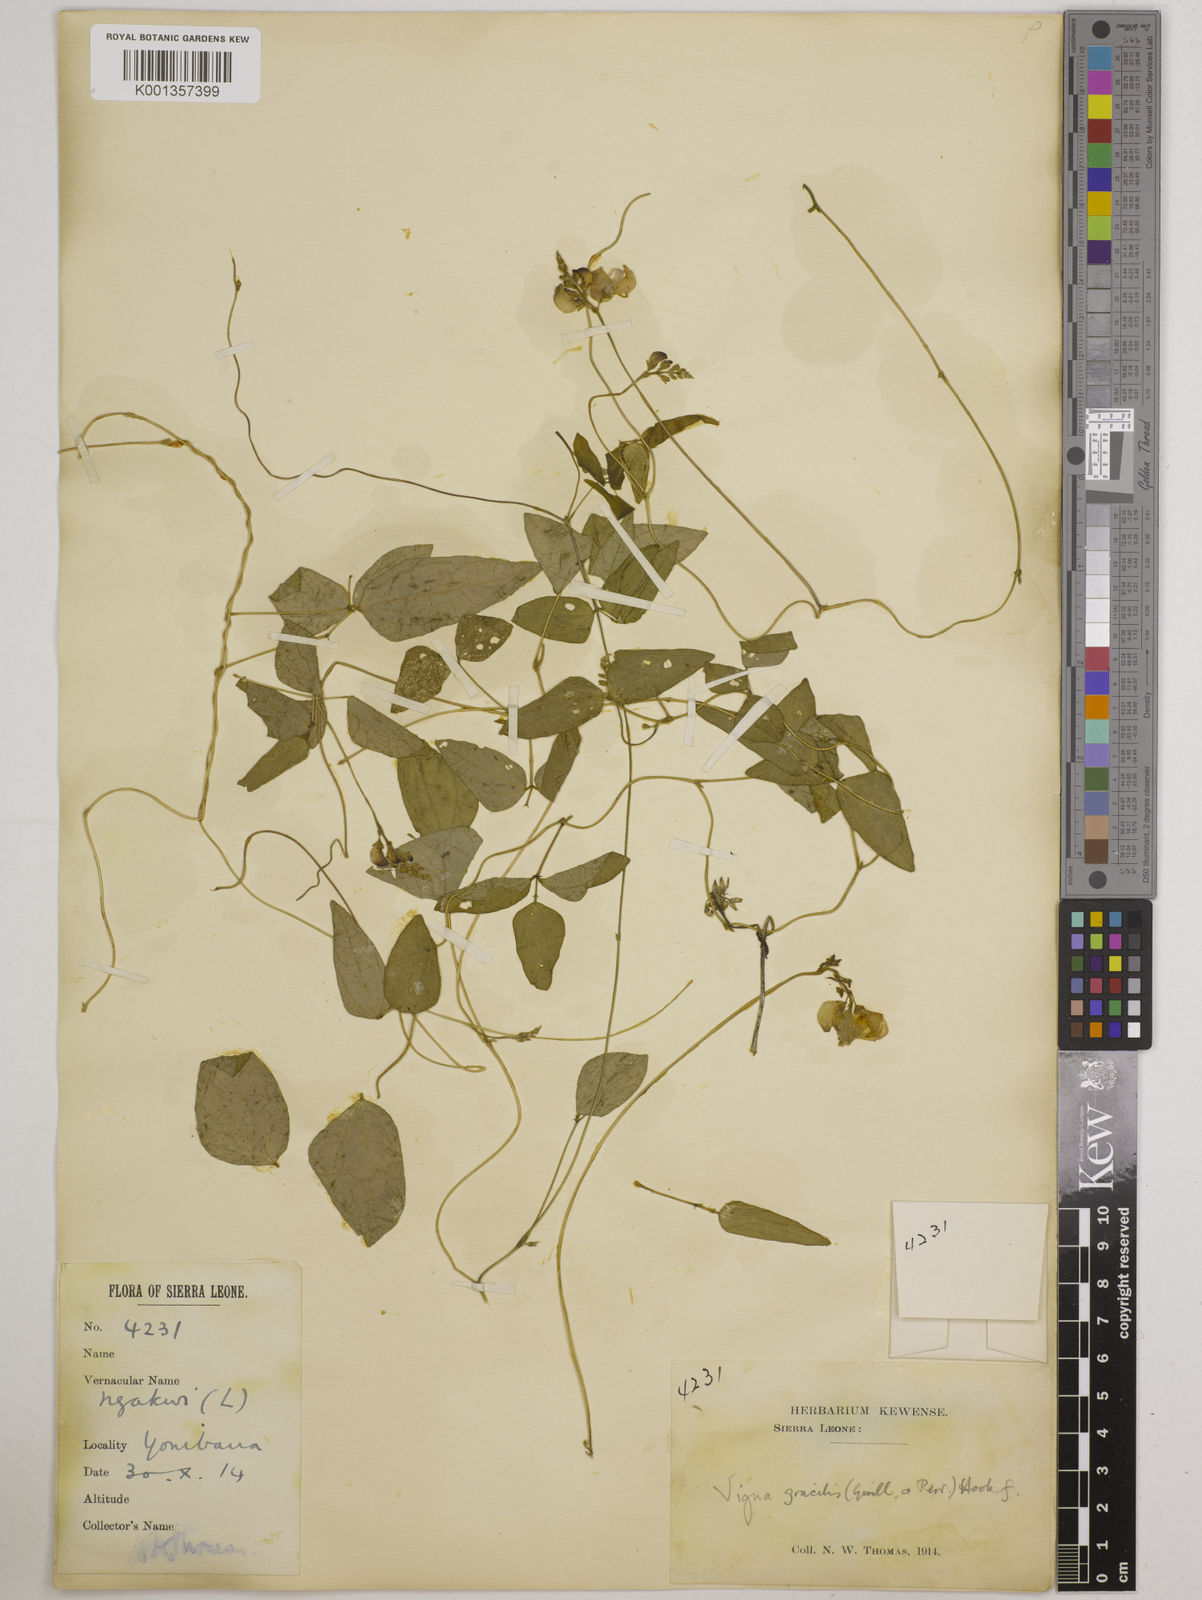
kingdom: Plantae
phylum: Tracheophyta
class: Magnoliopsida
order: Fabales
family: Fabaceae
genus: Vigna
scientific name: Vigna gracilis
